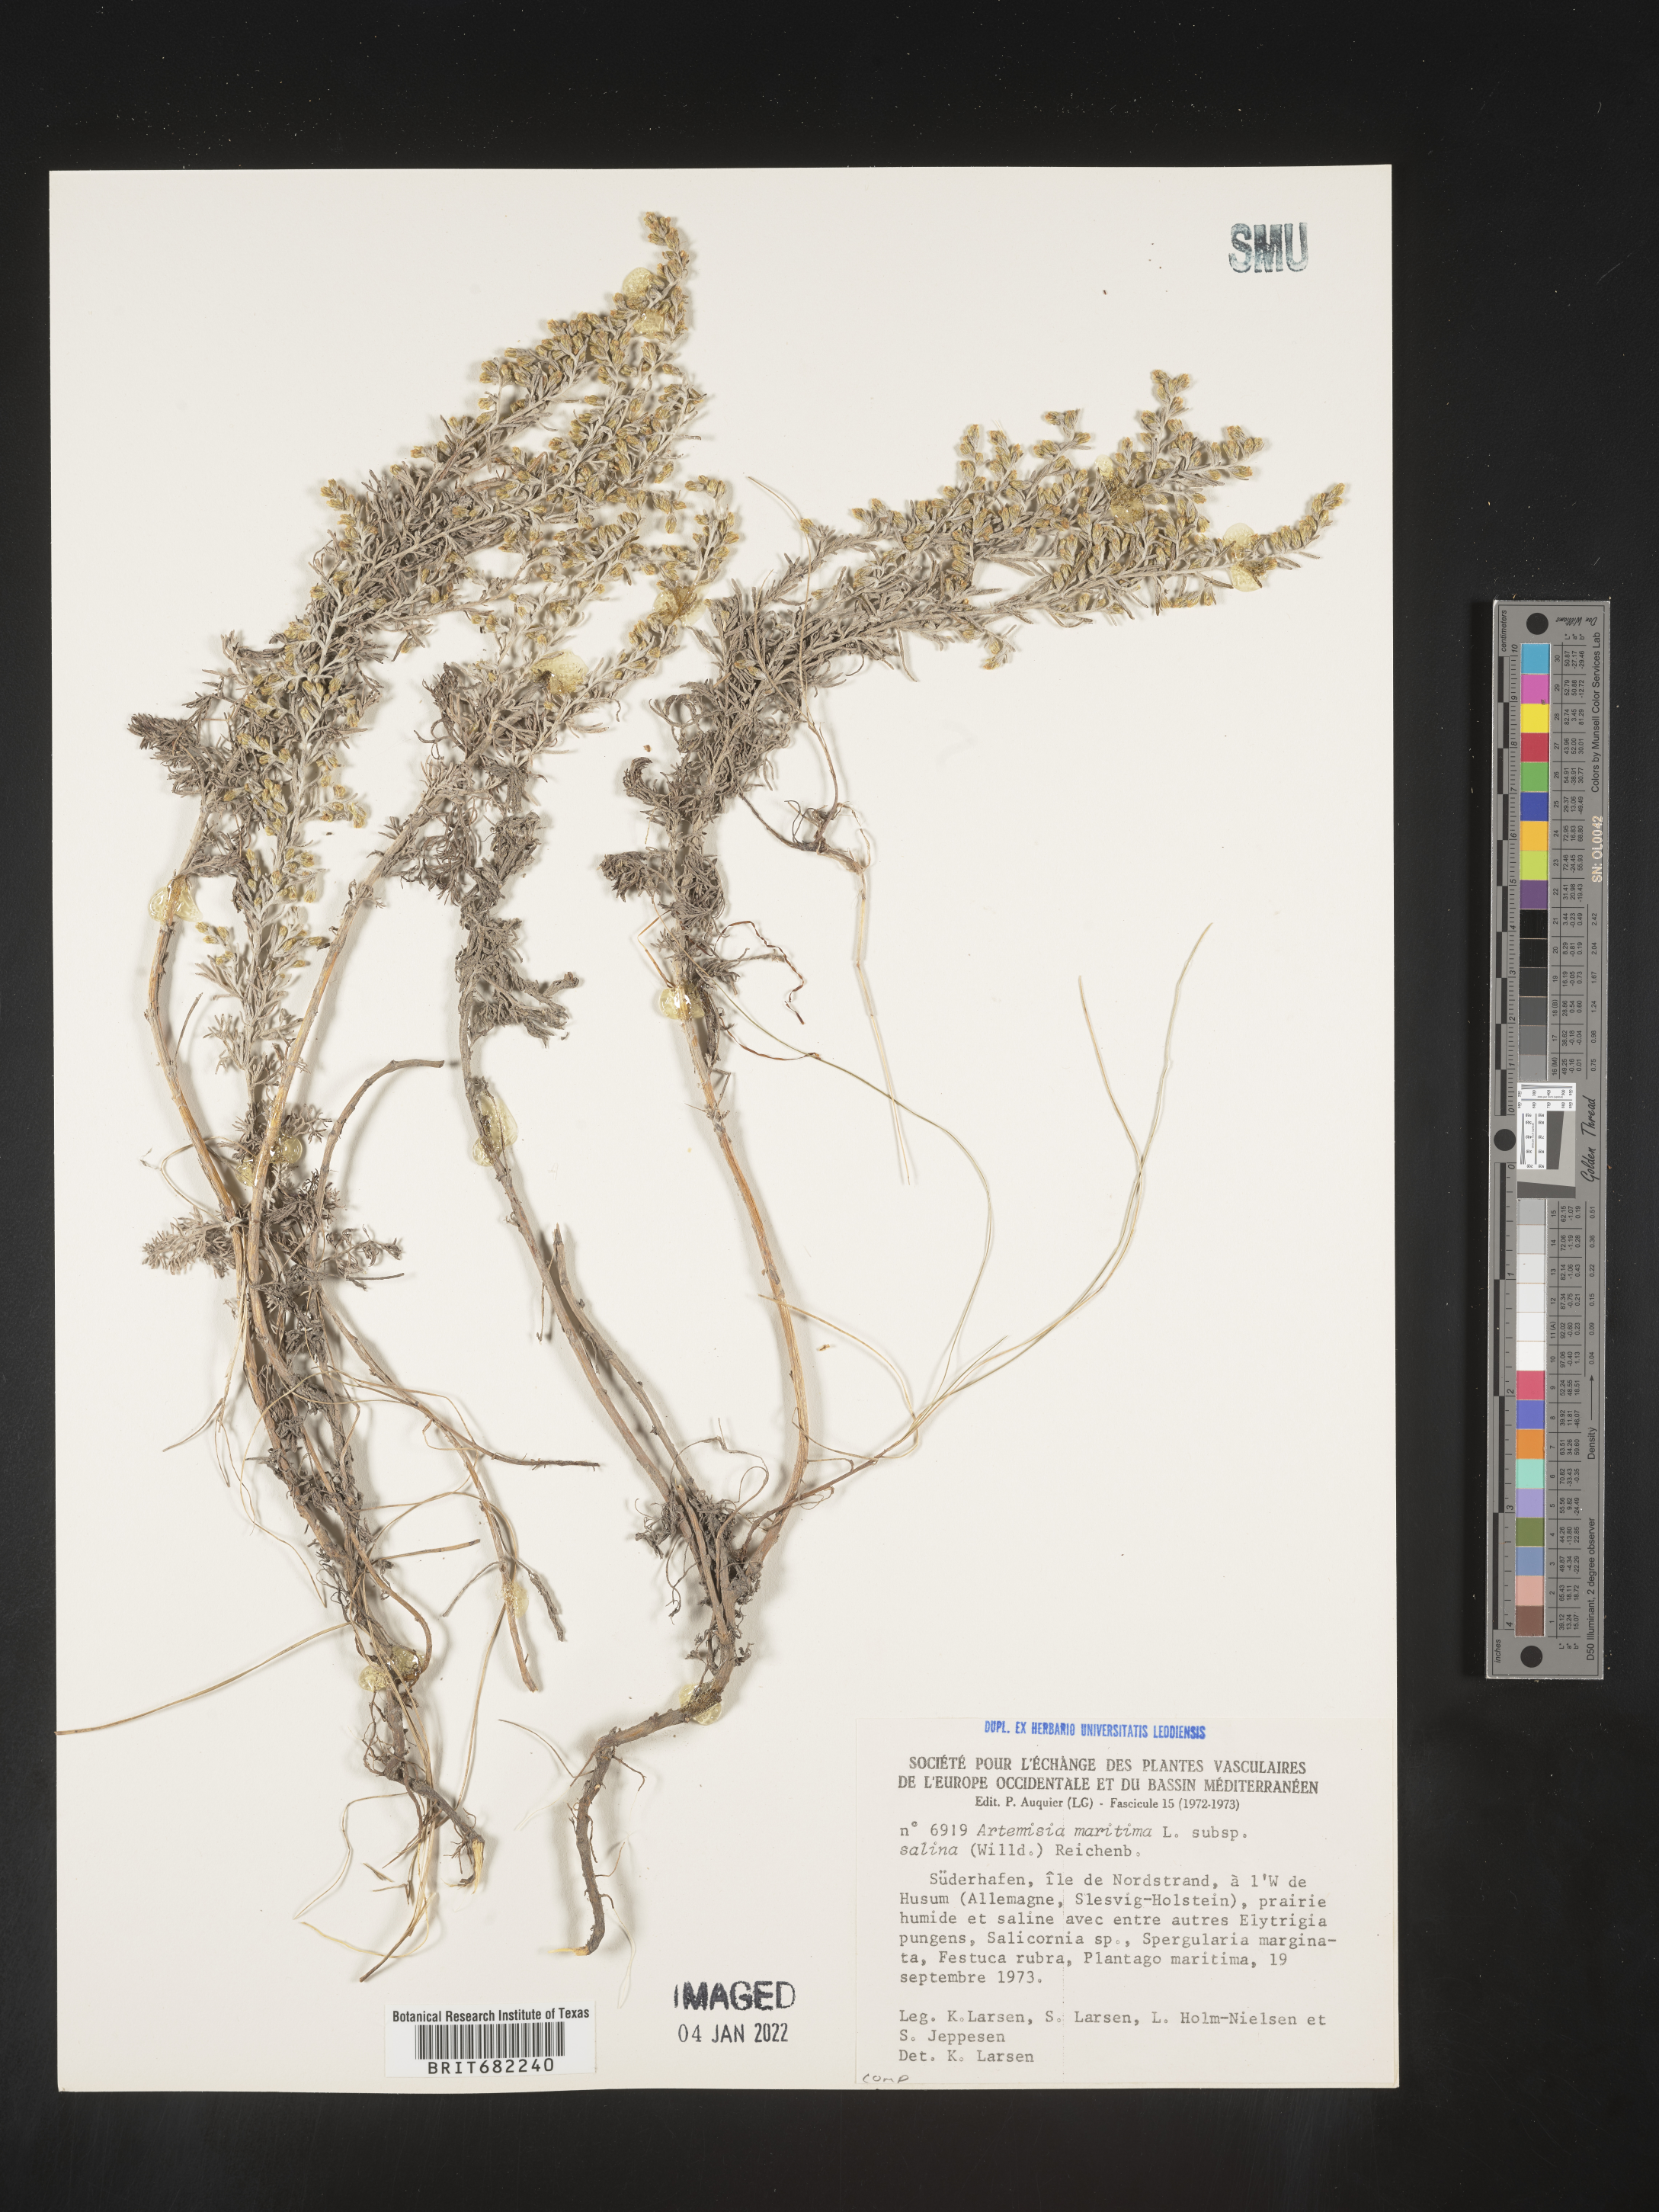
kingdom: Plantae
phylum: Tracheophyta
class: Magnoliopsida
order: Asterales
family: Asteraceae
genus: Artemisia
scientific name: Artemisia
